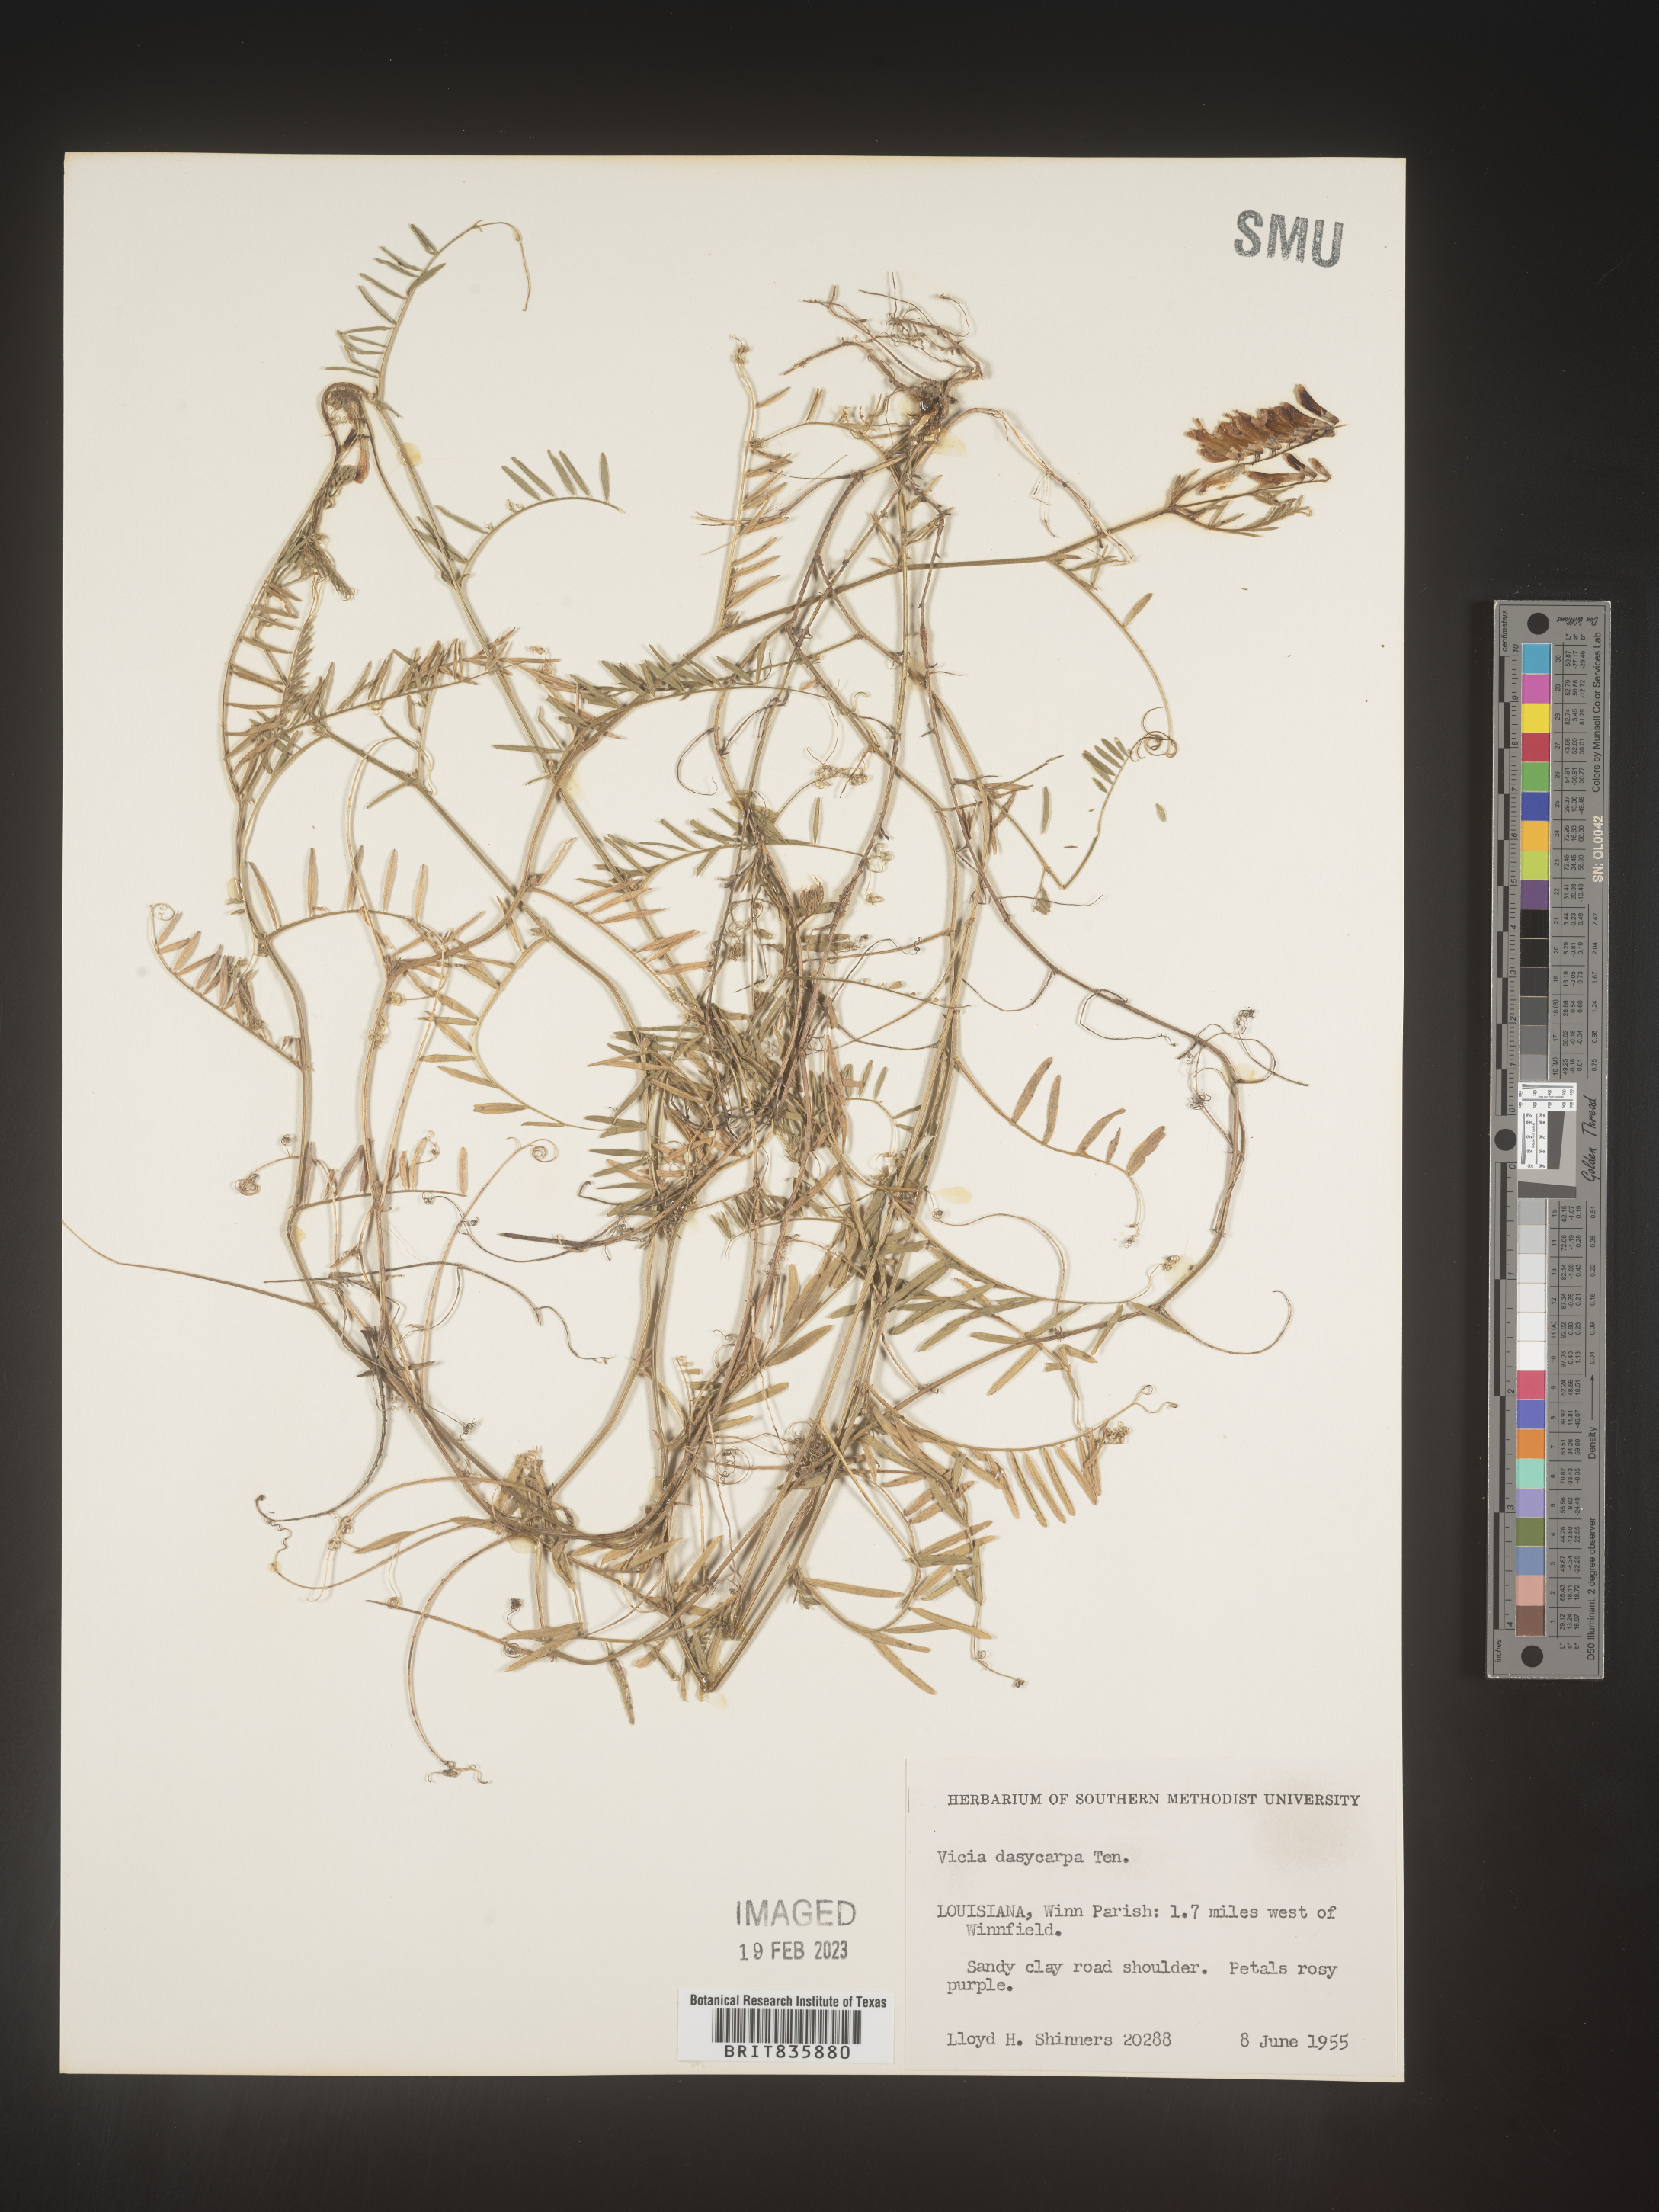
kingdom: Plantae
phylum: Tracheophyta
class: Magnoliopsida
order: Fabales
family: Fabaceae
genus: Vicia
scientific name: Vicia villosa
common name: Fodder vetch
